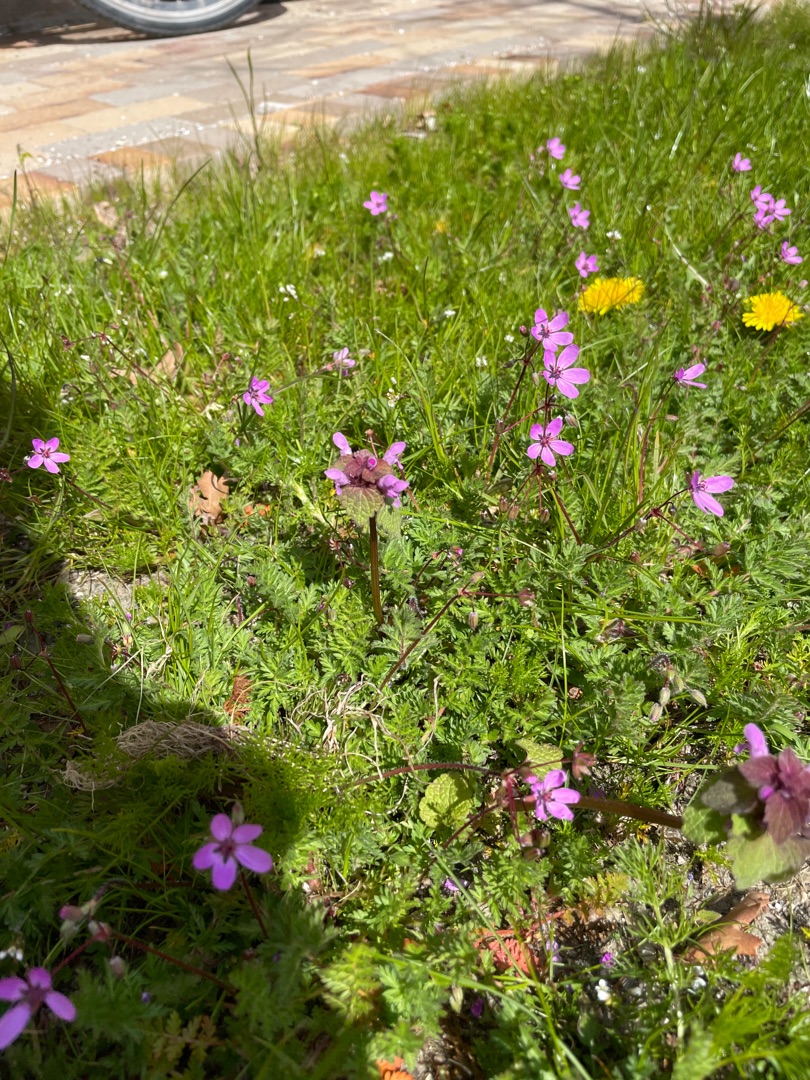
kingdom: Plantae
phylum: Tracheophyta
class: Magnoliopsida
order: Geraniales
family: Geraniaceae
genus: Erodium
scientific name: Erodium cicutarium
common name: Hejrenæb
